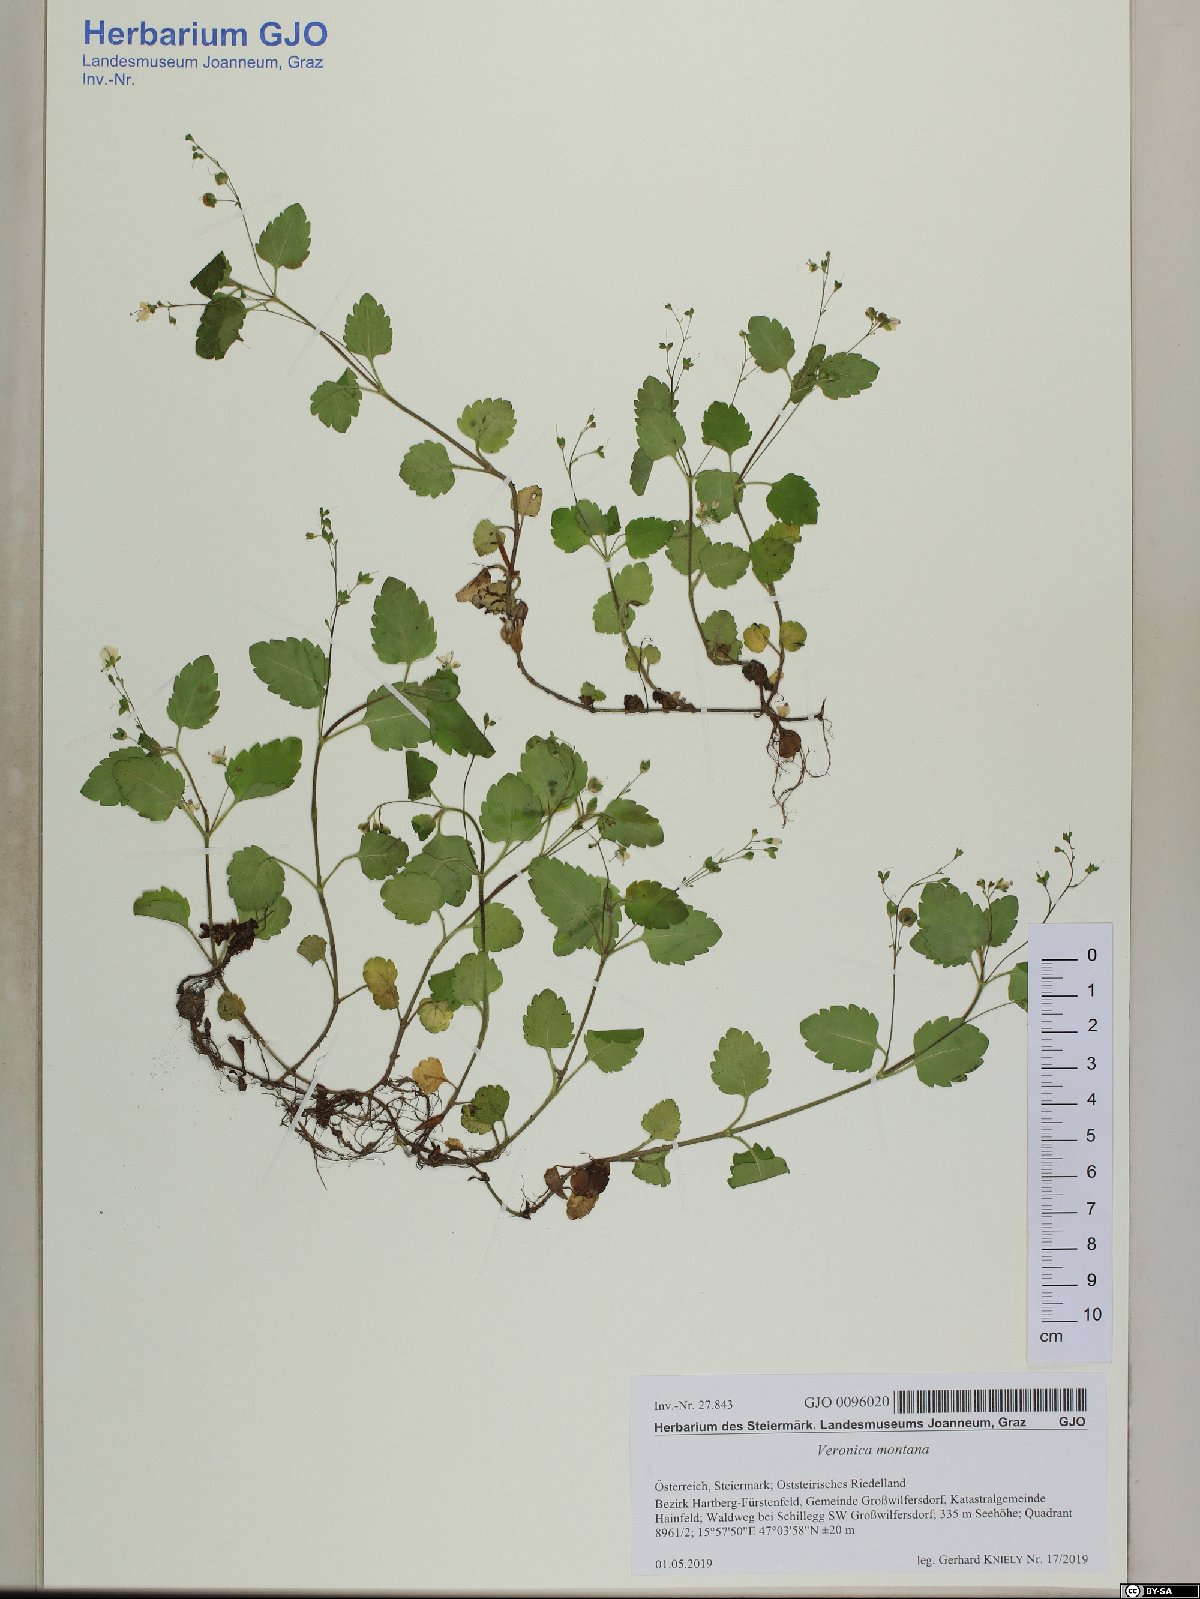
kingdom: Plantae
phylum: Tracheophyta
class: Magnoliopsida
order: Lamiales
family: Plantaginaceae
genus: Veronica
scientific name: Veronica montana
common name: Wood speedwell
